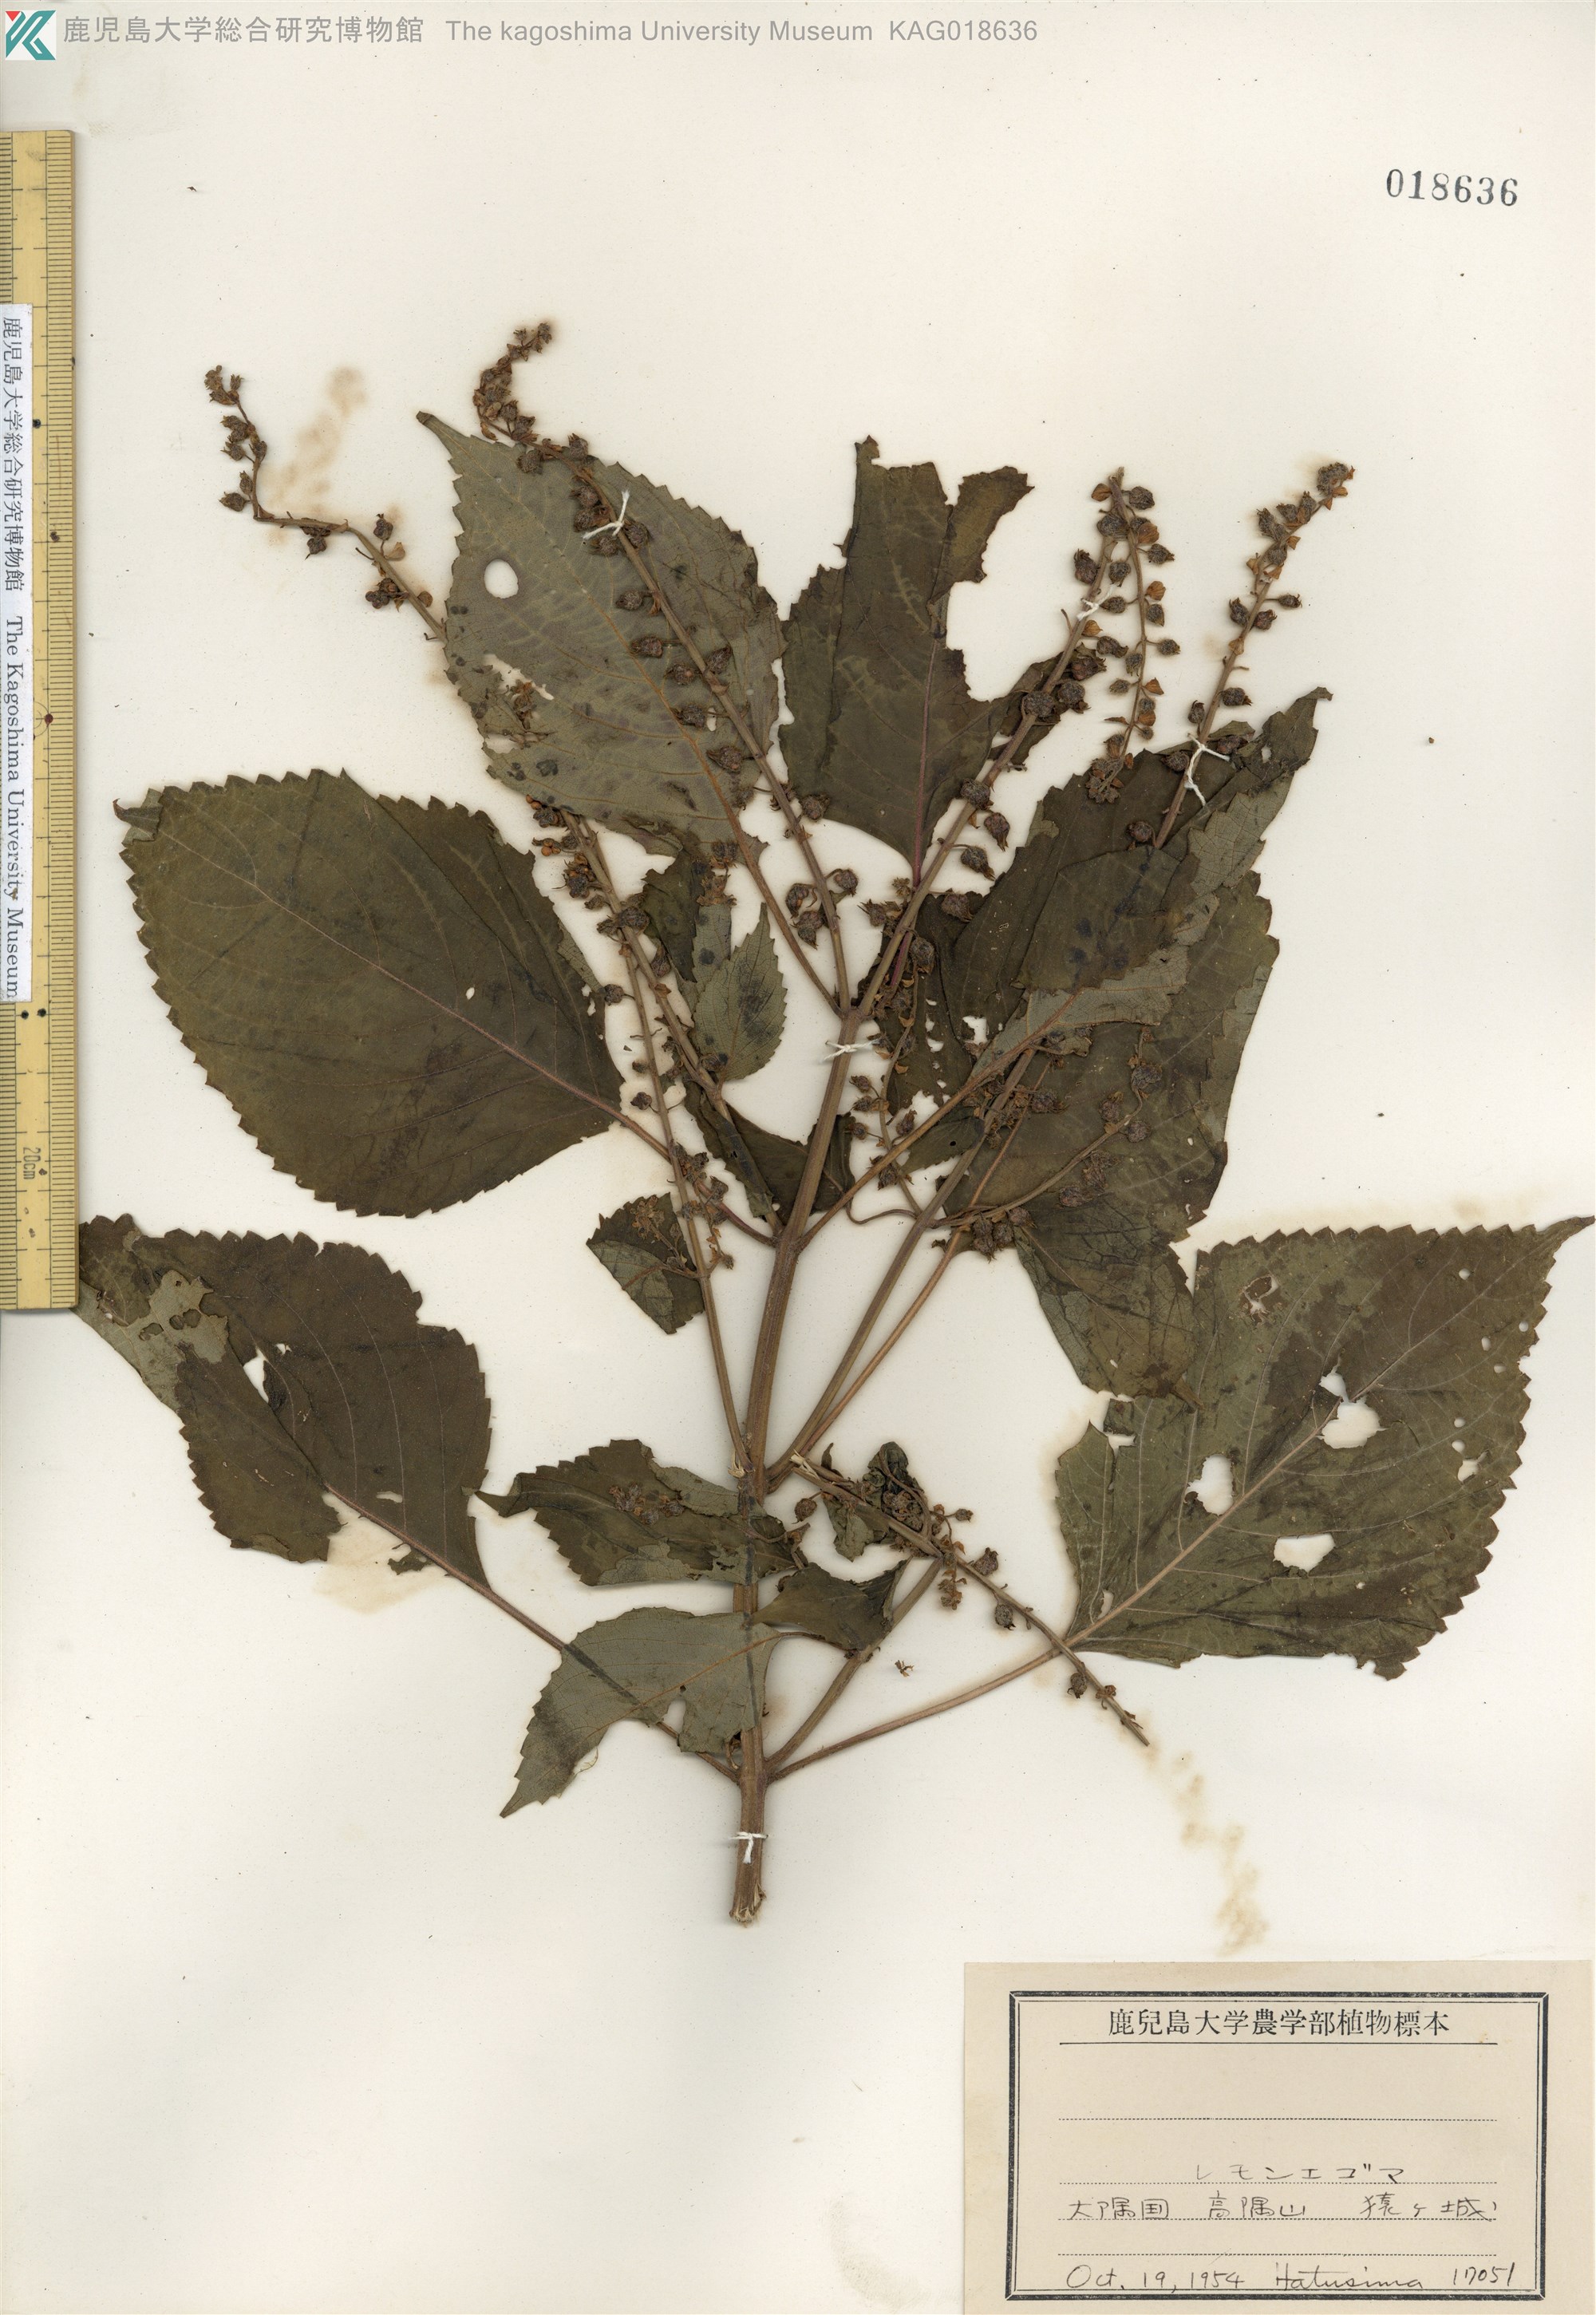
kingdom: Plantae
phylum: Tracheophyta
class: Magnoliopsida
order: Lamiales
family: Lamiaceae
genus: Perilla
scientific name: Perilla frutescens
